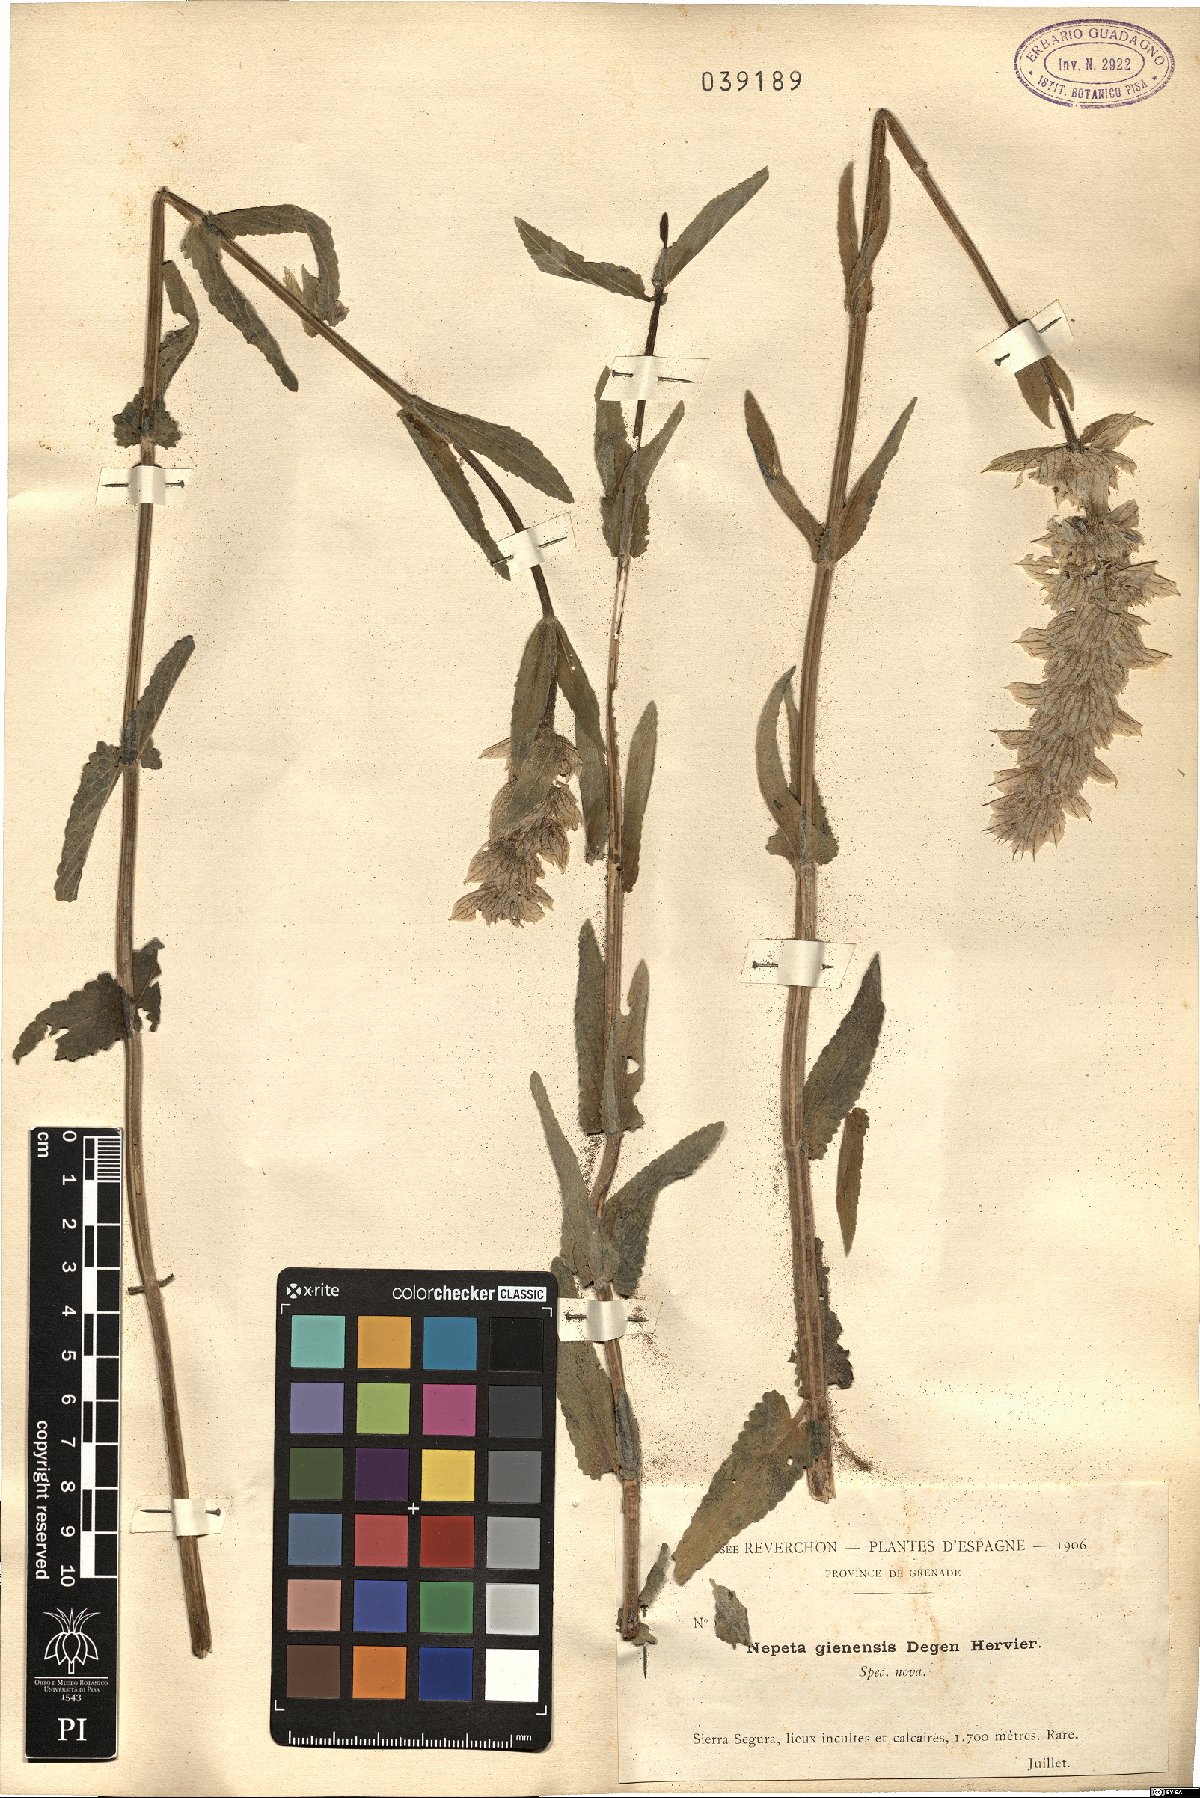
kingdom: Plantae
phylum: Tracheophyta
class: Magnoliopsida
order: Lamiales
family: Lamiaceae
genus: Nepeta
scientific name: Nepeta tuberosa
